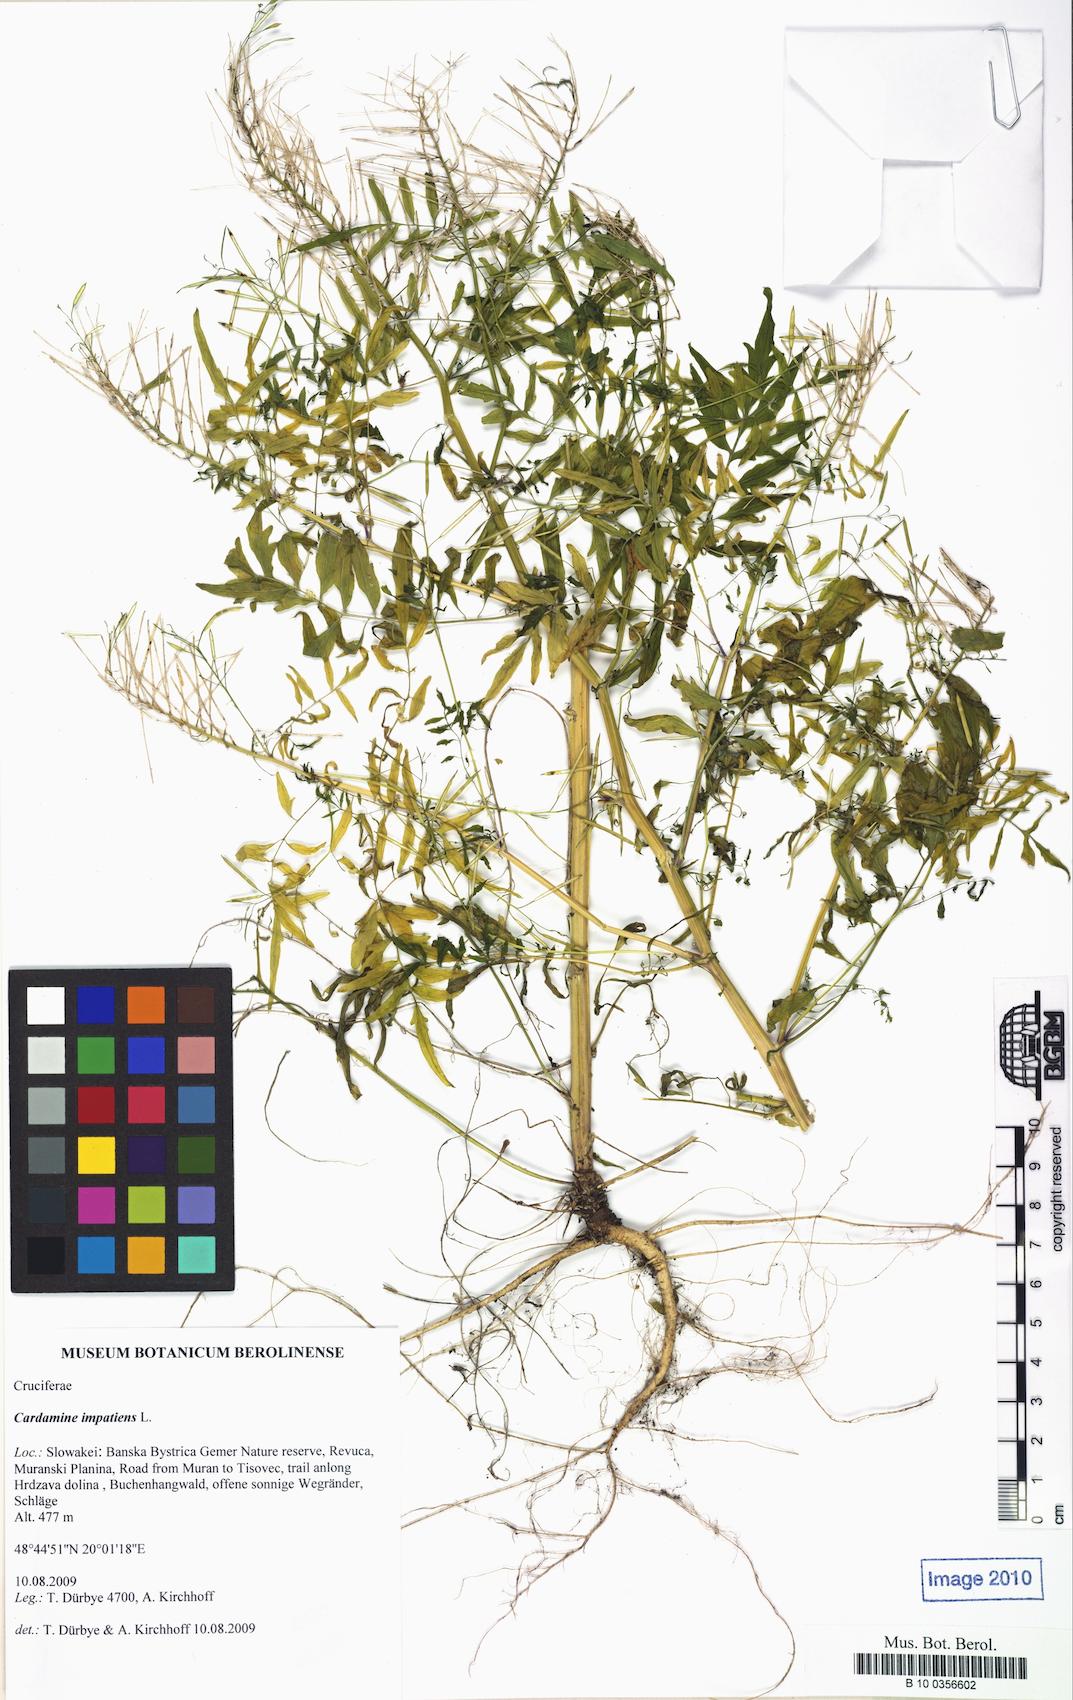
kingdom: Plantae
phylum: Tracheophyta
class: Magnoliopsida
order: Brassicales
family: Brassicaceae
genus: Cardamine
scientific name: Cardamine impatiens
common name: Narrow-leaved bitter-cress
